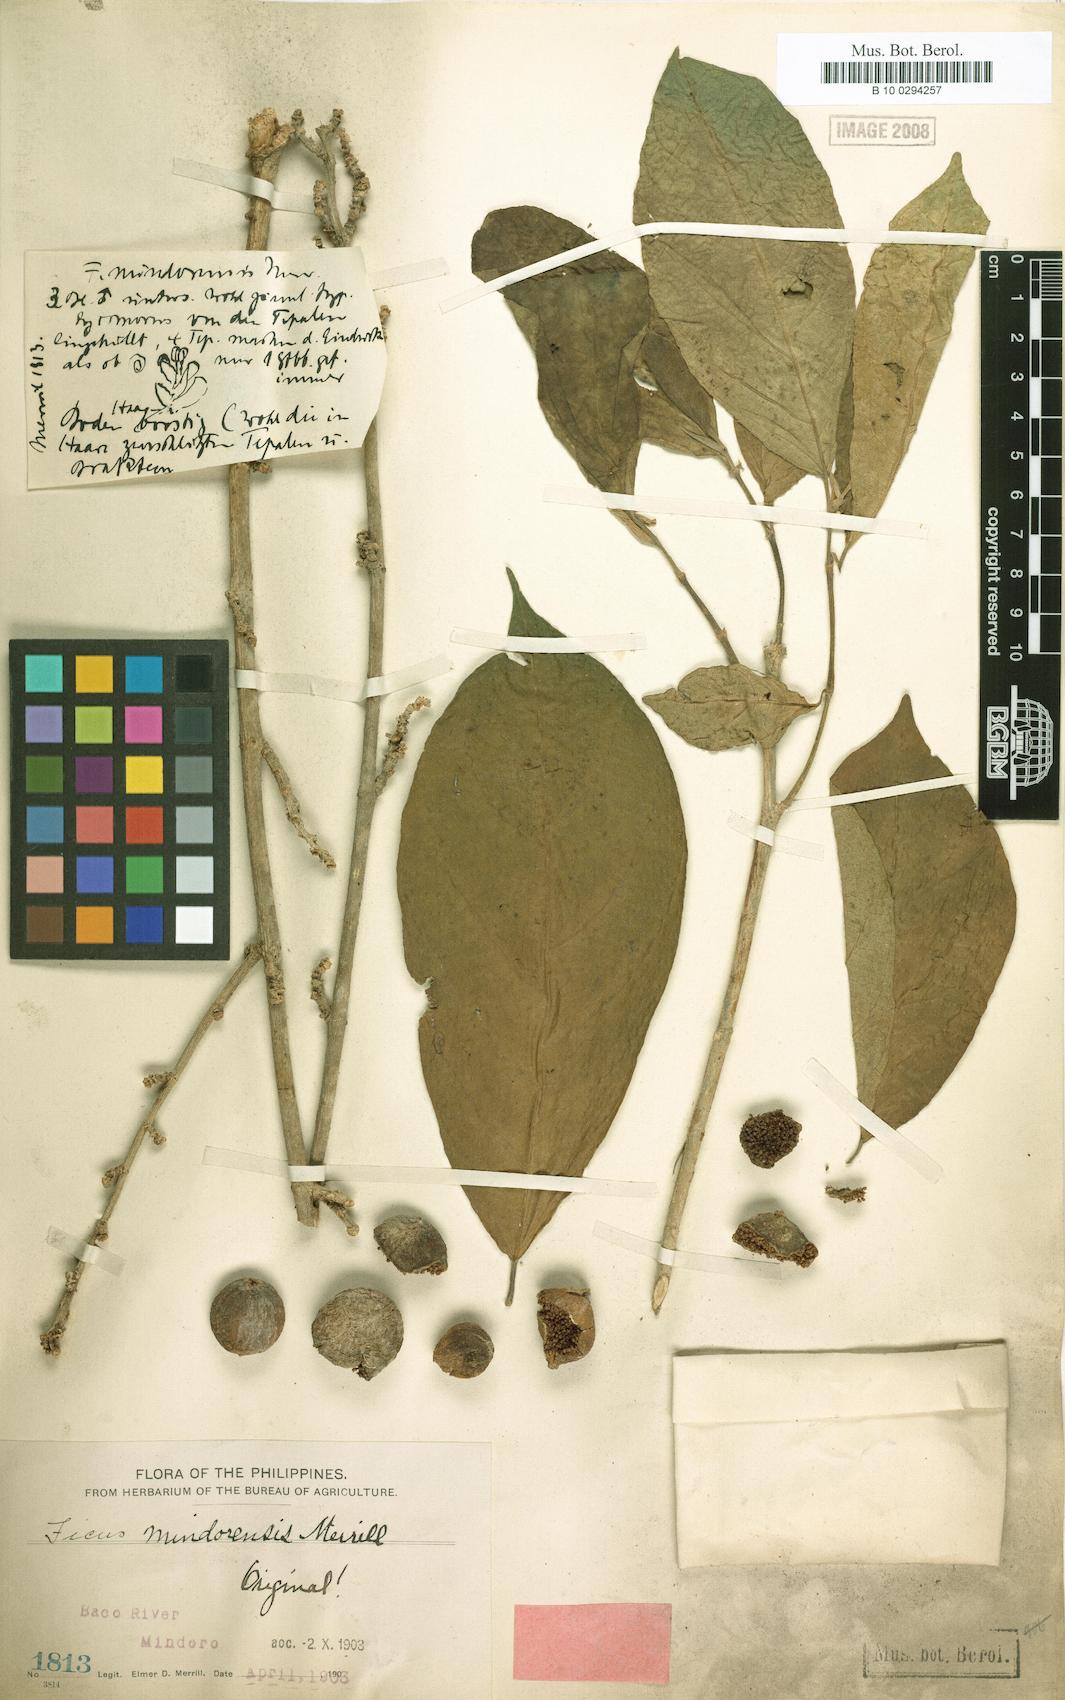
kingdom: Plantae
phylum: Tracheophyta
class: Magnoliopsida
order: Rosales
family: Moraceae
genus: Ficus
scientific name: Ficus botryocarpa
